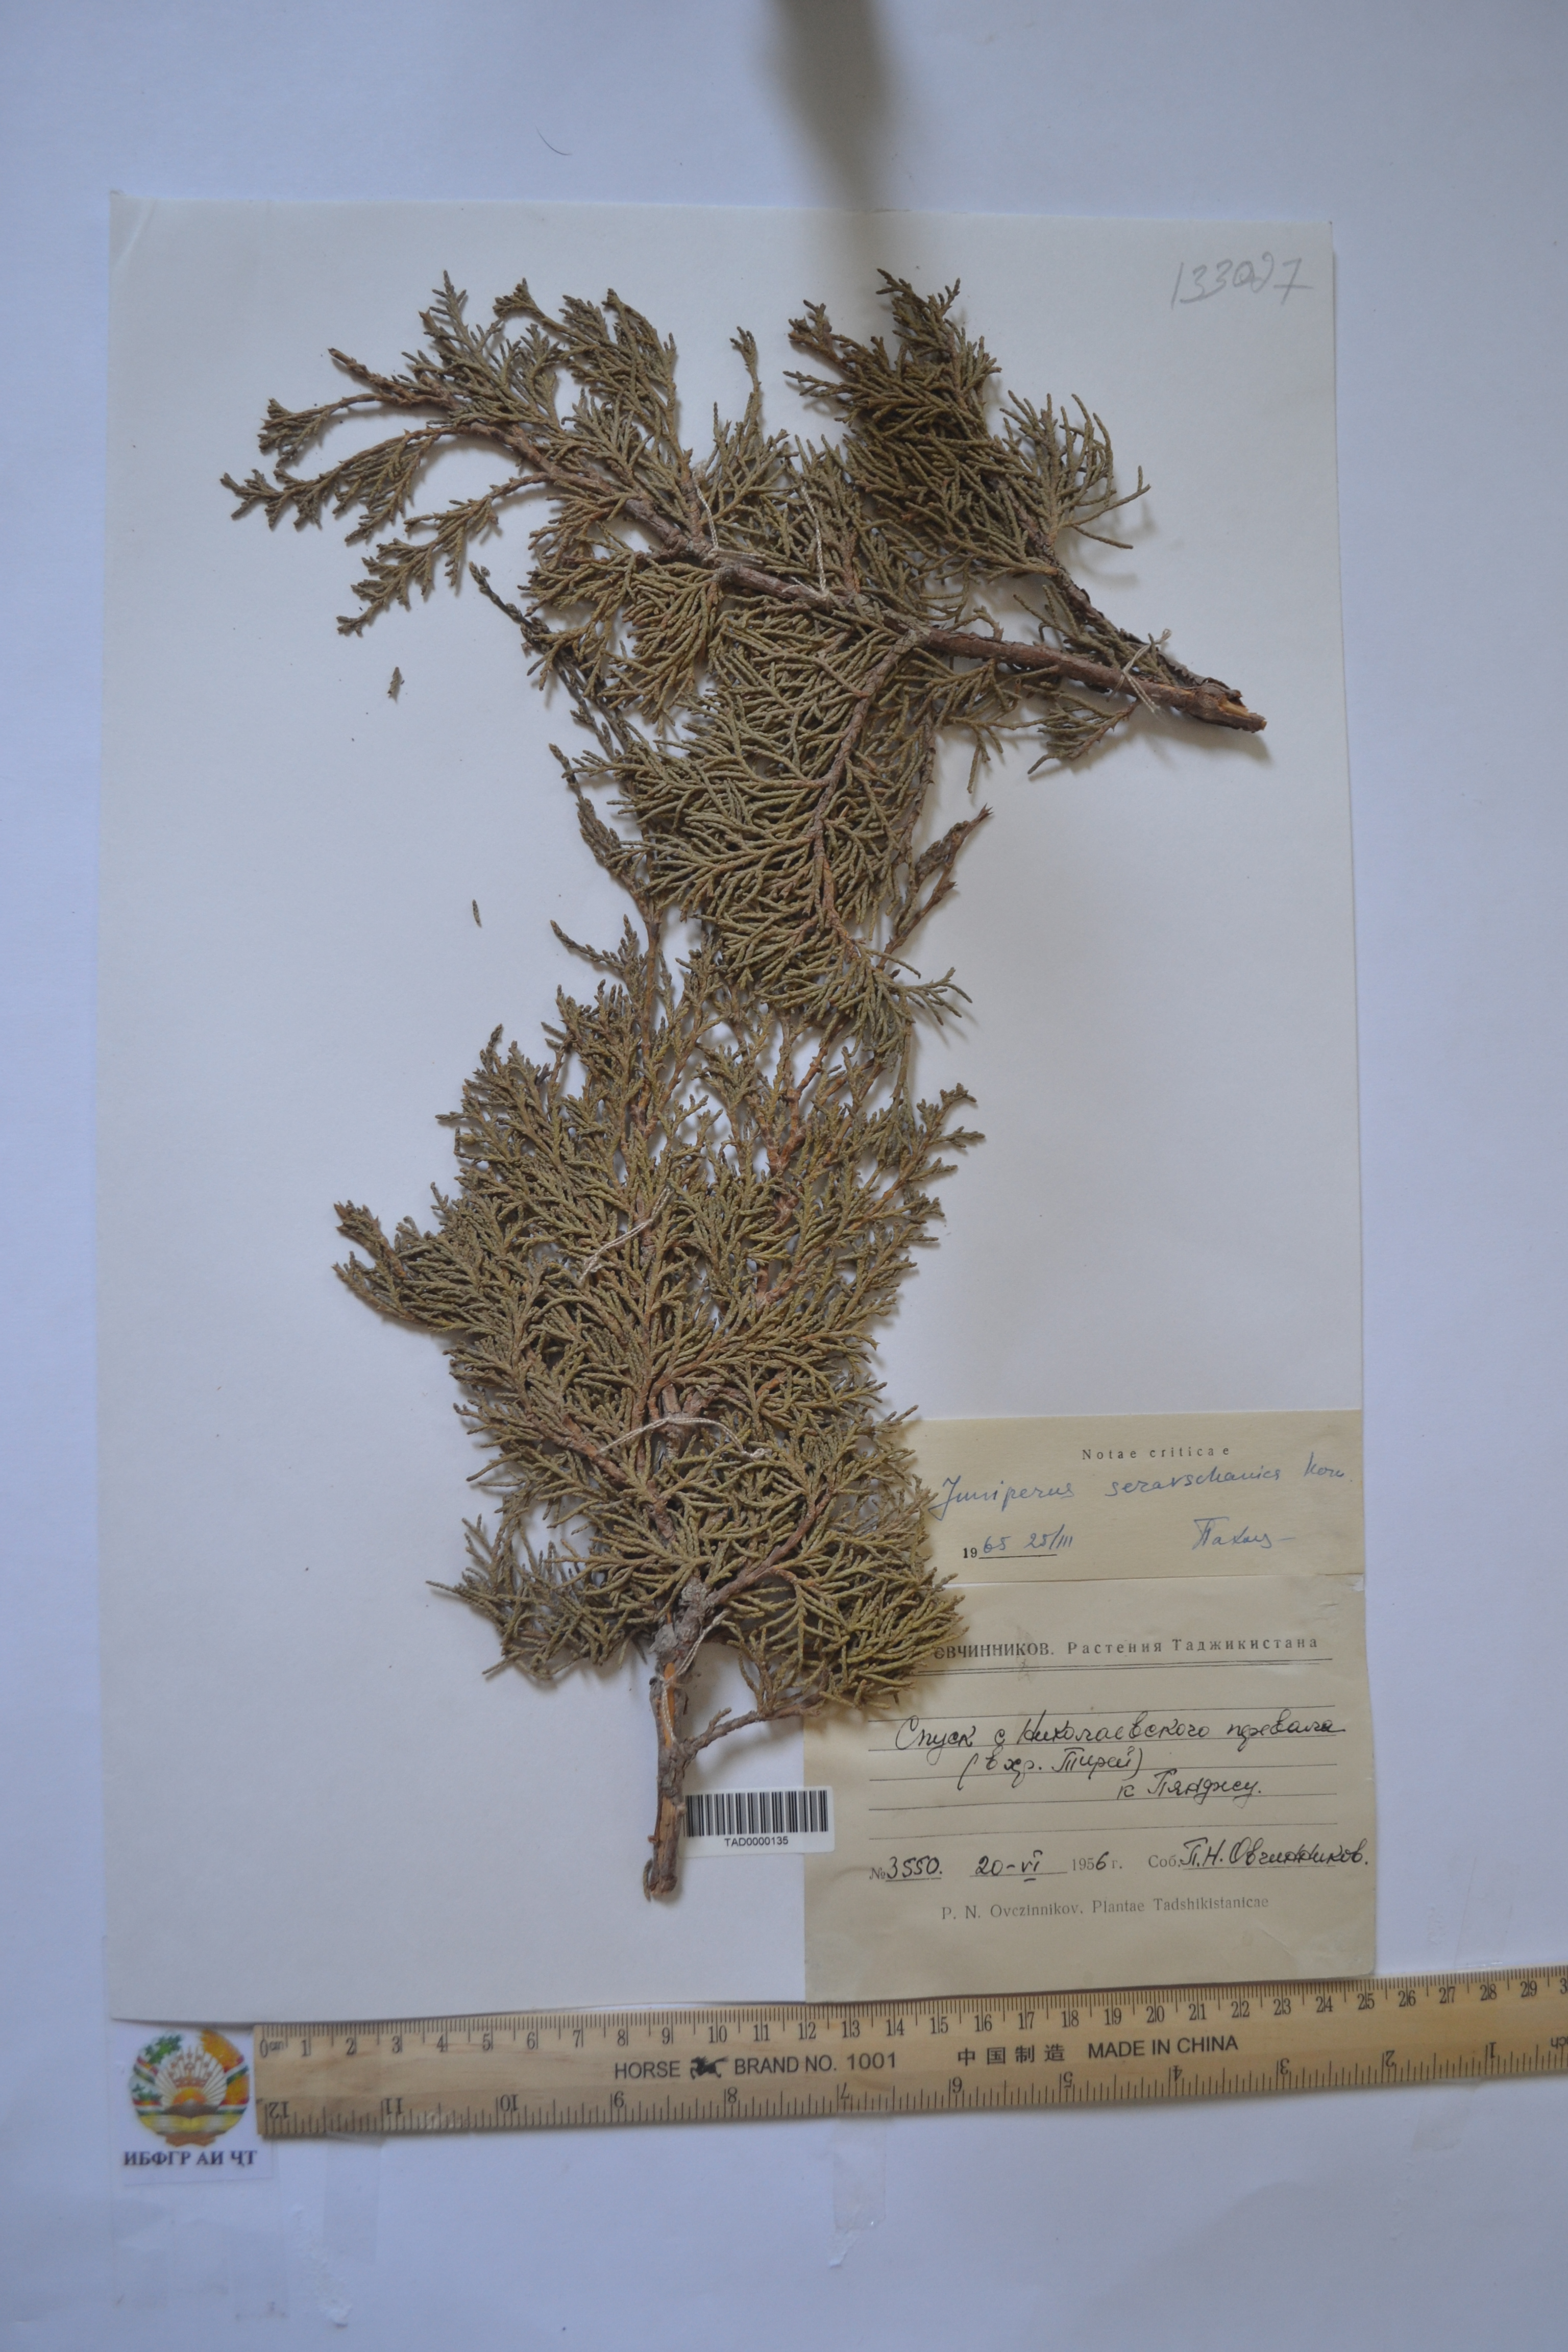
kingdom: Plantae
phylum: Tracheophyta
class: Pinopsida
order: Pinales
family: Cupressaceae
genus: Juniperus
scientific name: Juniperus excelsa
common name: Crimean juniper
